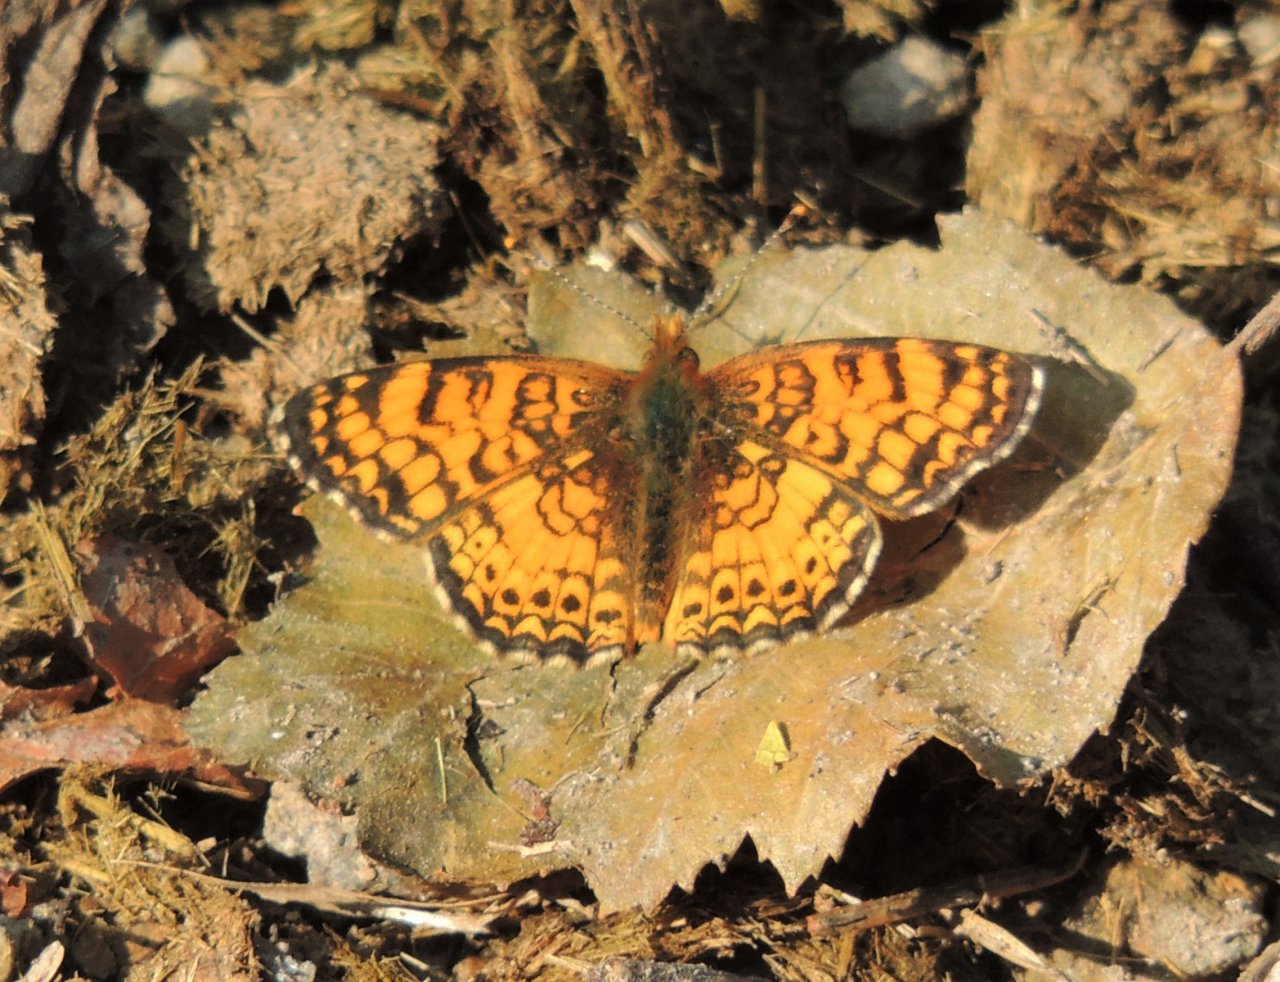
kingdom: Animalia
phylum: Arthropoda
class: Insecta
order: Lepidoptera
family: Nymphalidae
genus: Eresia
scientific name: Eresia aveyrona
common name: Mylitta Crescent
